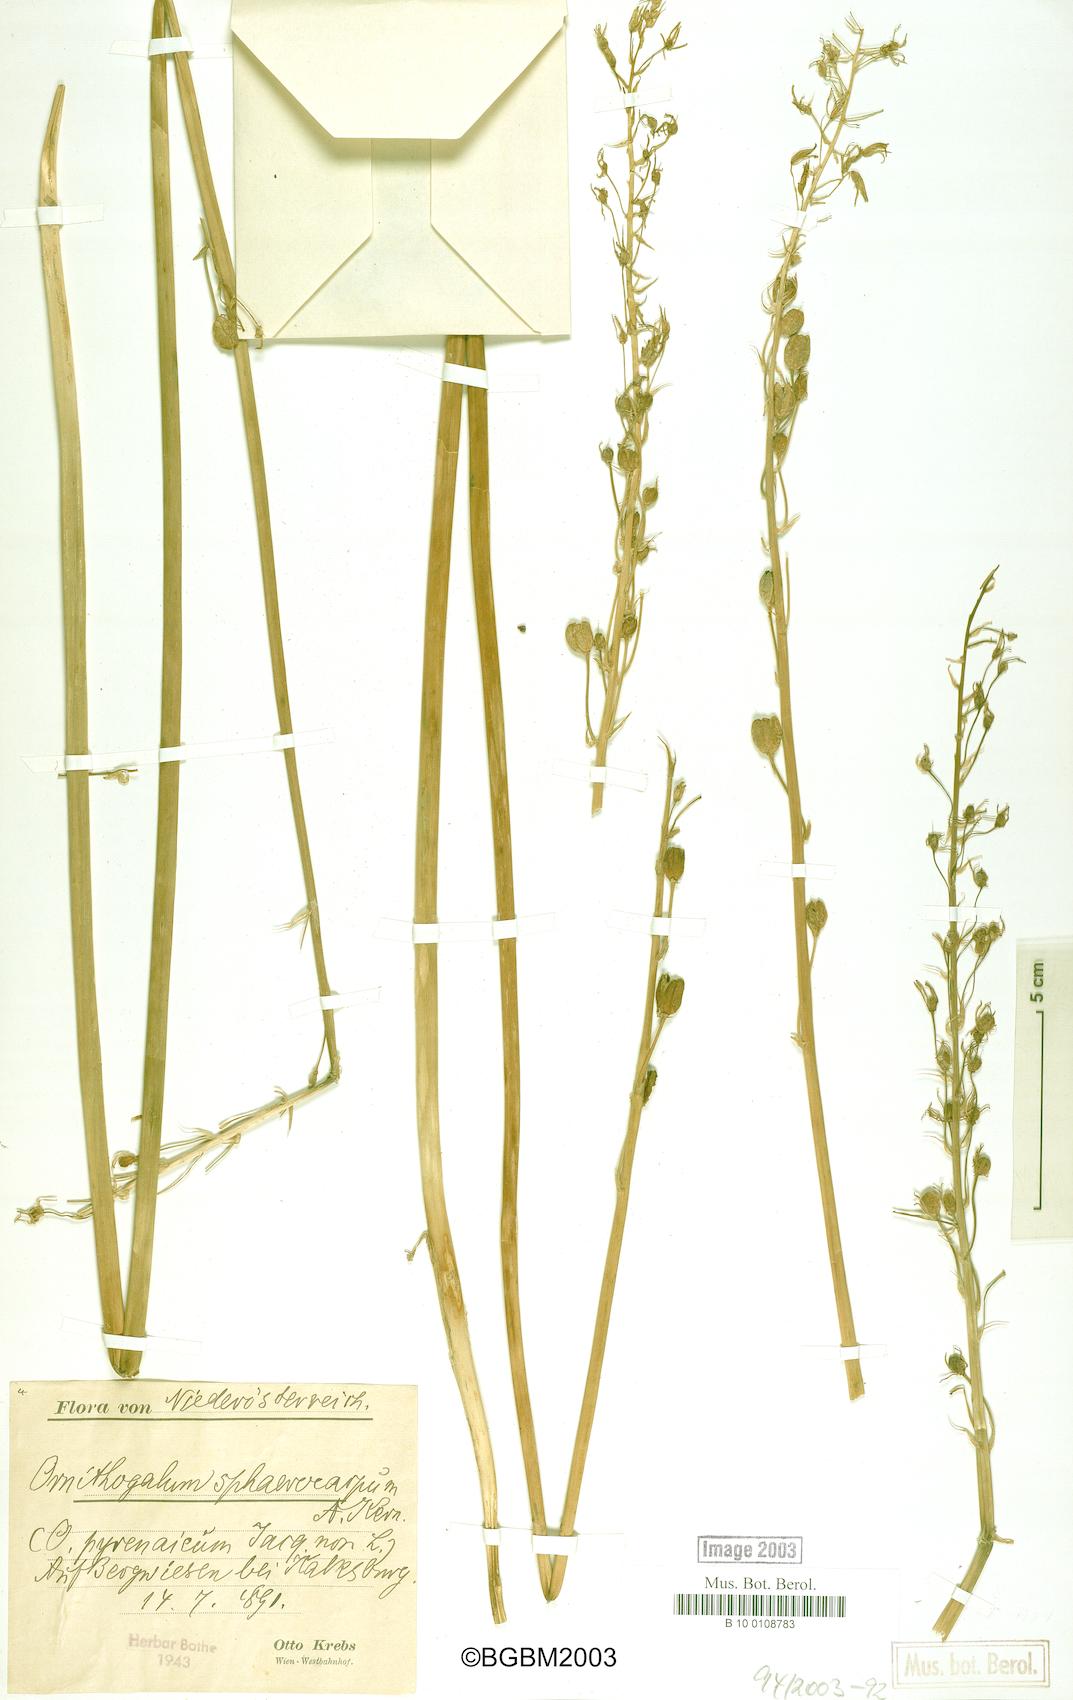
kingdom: Plantae
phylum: Tracheophyta
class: Liliopsida
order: Asparagales
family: Asparagaceae
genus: Ornithogalum
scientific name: Ornithogalum sphaerocarpum
